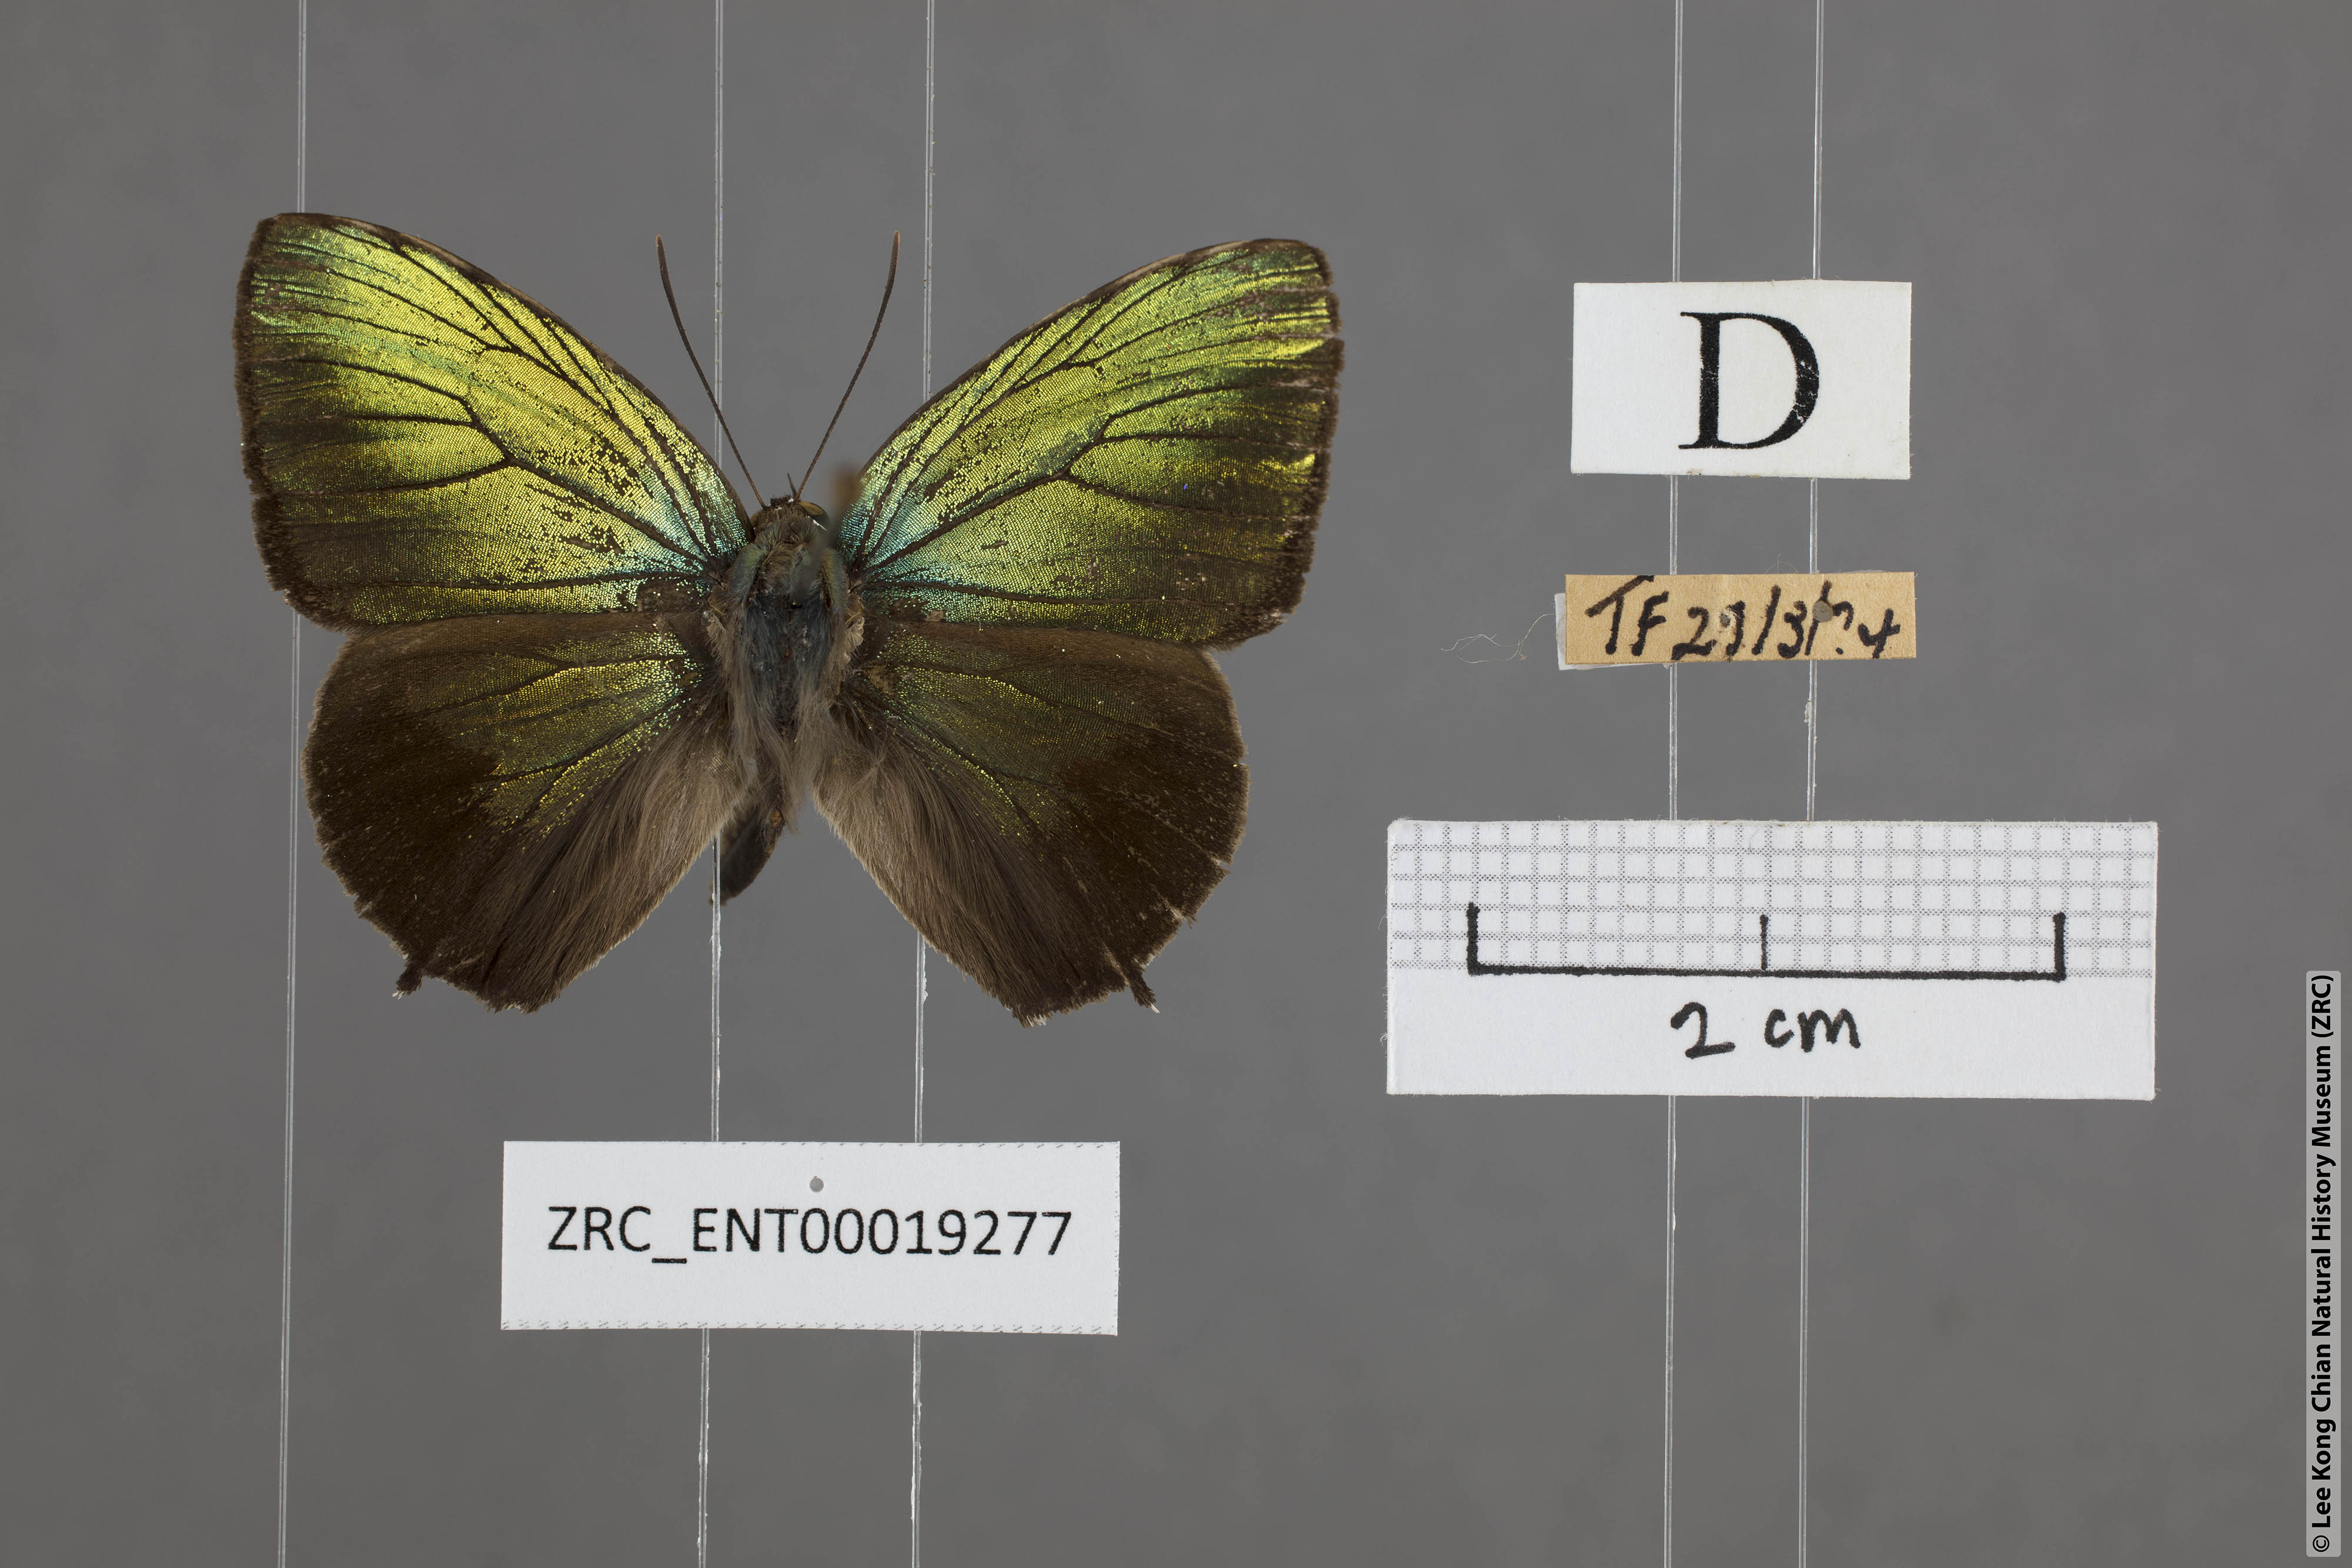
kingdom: Animalia
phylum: Arthropoda
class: Insecta
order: Lepidoptera
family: Lycaenidae
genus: Arhopala
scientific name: Arhopala aurea
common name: Long-celled oakblue
